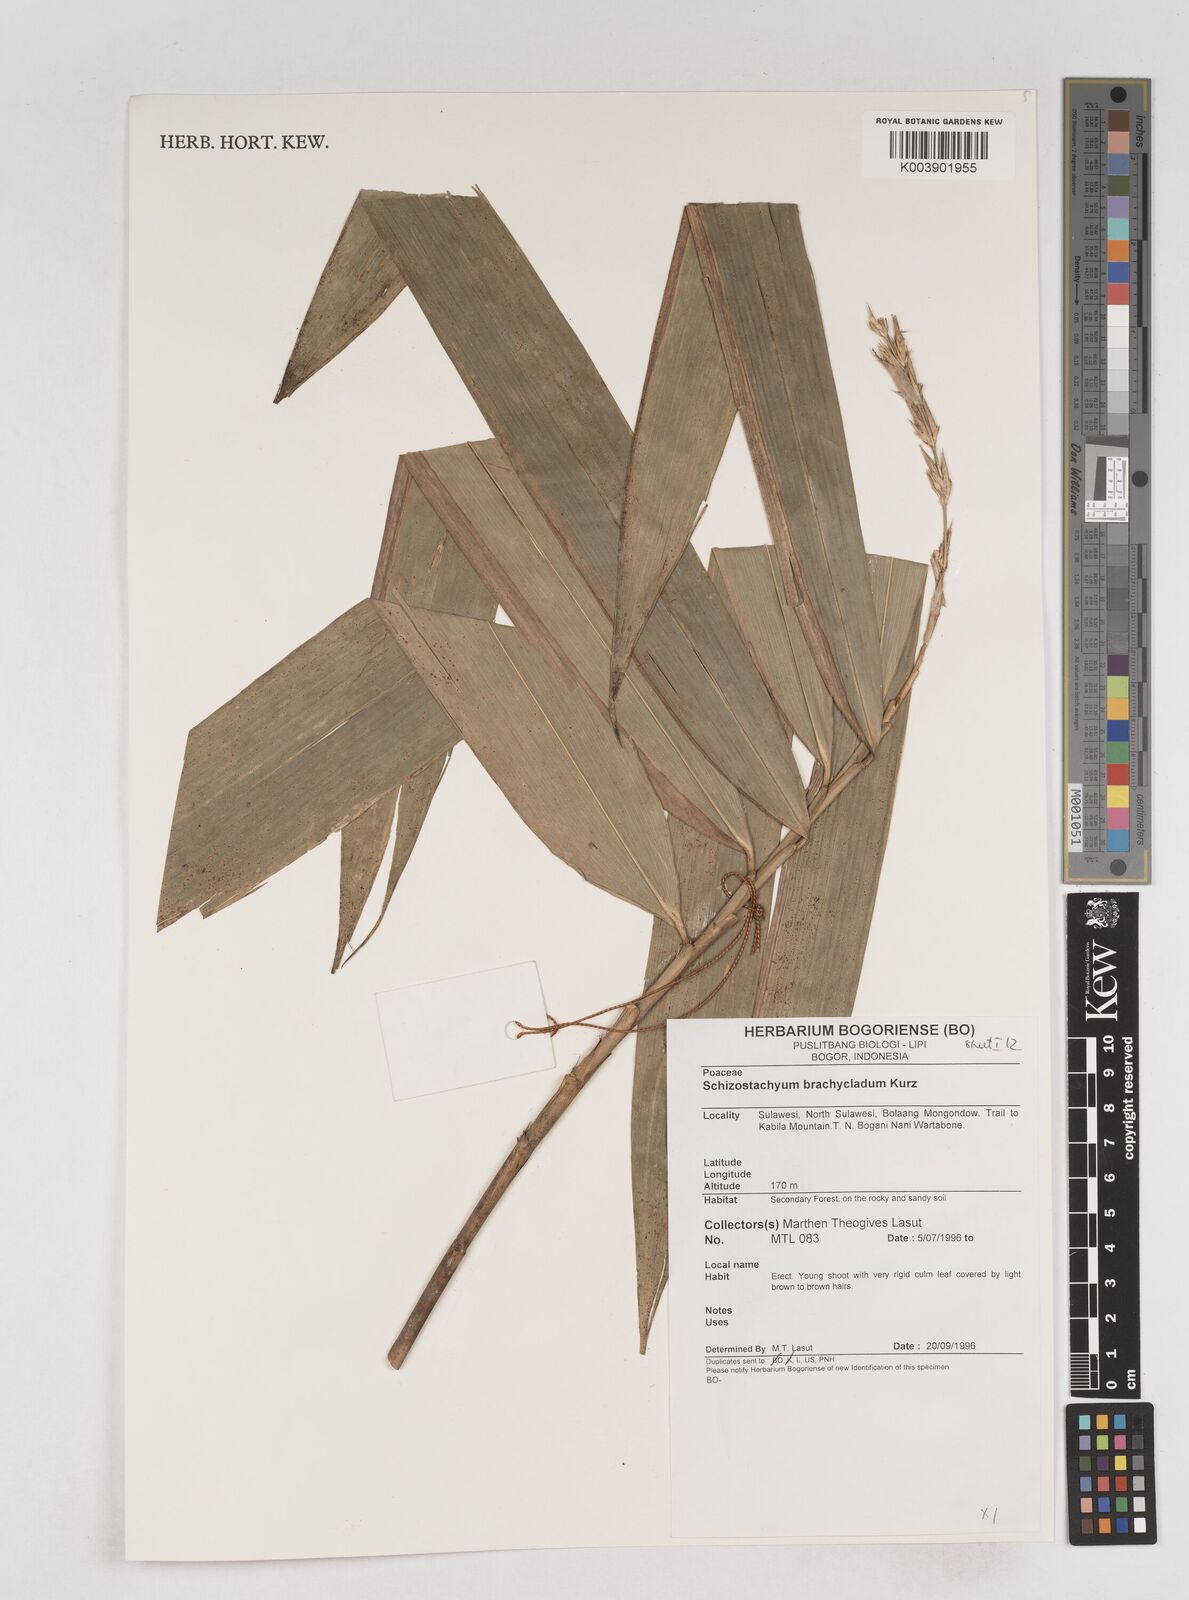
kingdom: Plantae
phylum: Tracheophyta
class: Liliopsida
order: Poales
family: Poaceae
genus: Schizostachyum
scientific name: Schizostachyum brachycladum
